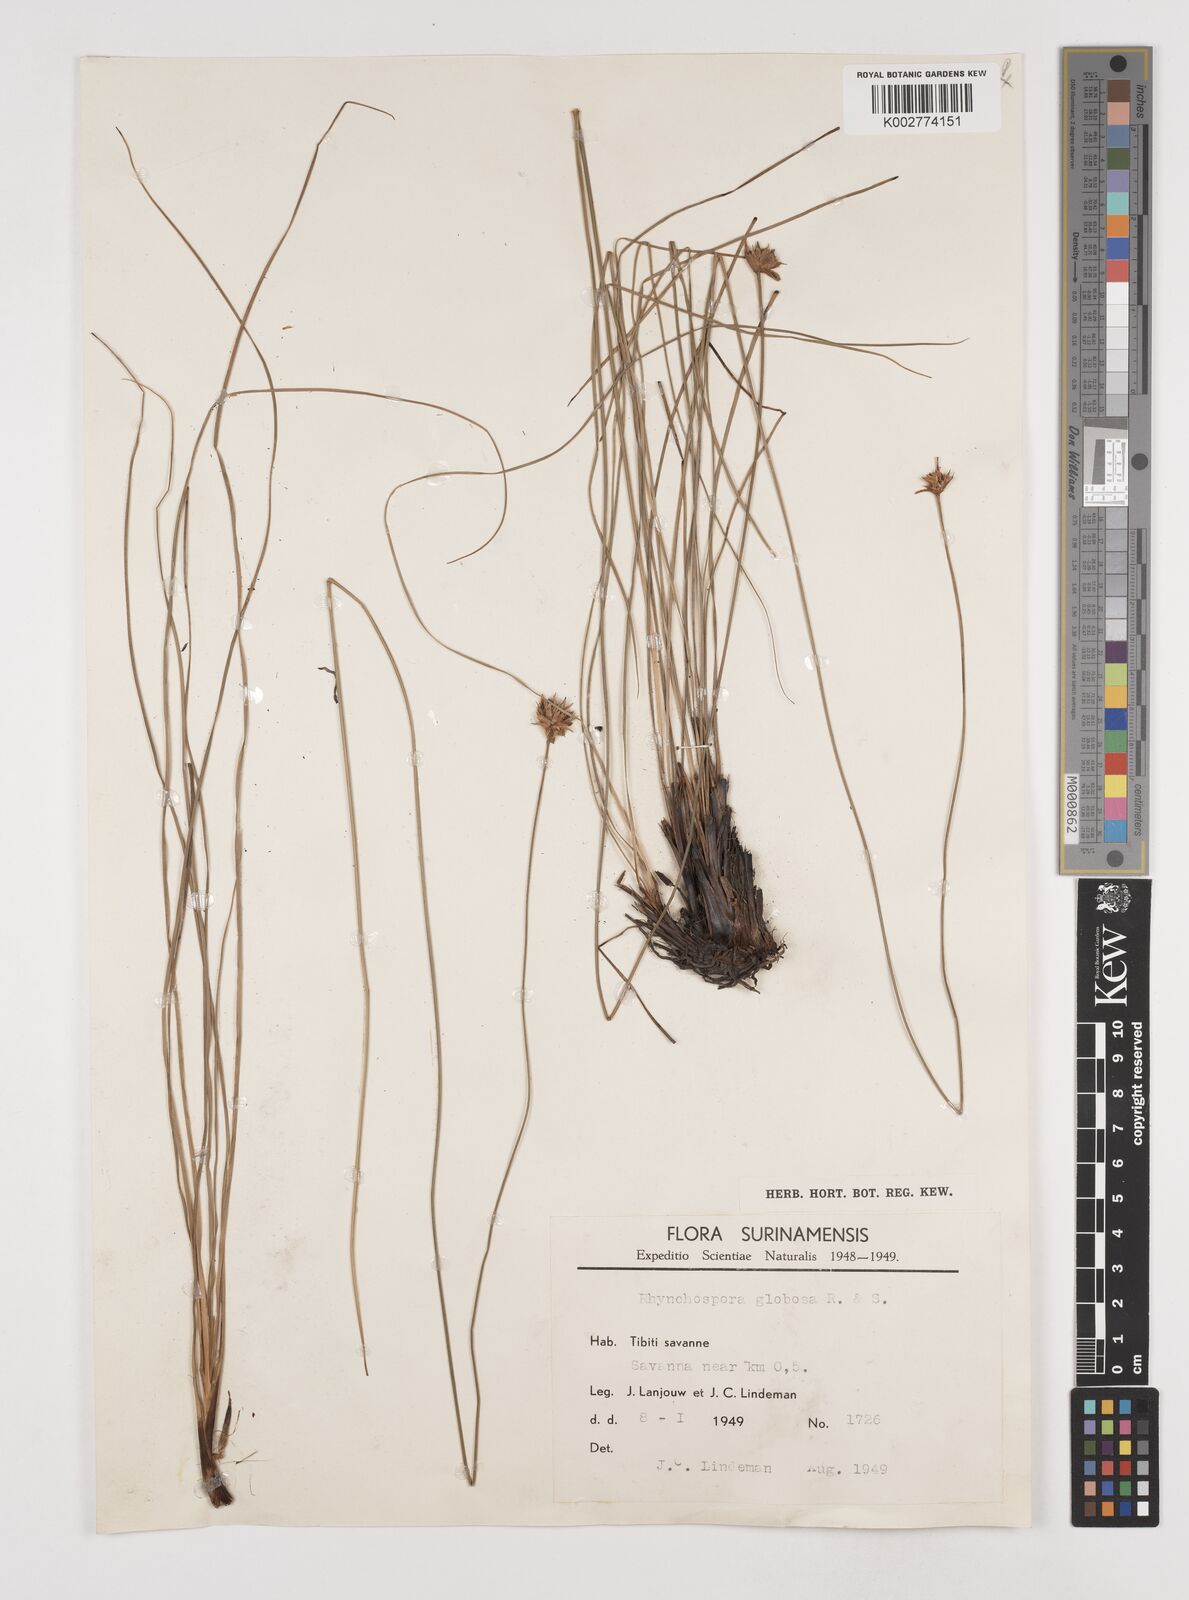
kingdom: Plantae
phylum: Tracheophyta
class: Liliopsida
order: Poales
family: Cyperaceae
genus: Rhynchospora
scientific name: Rhynchospora globosa
